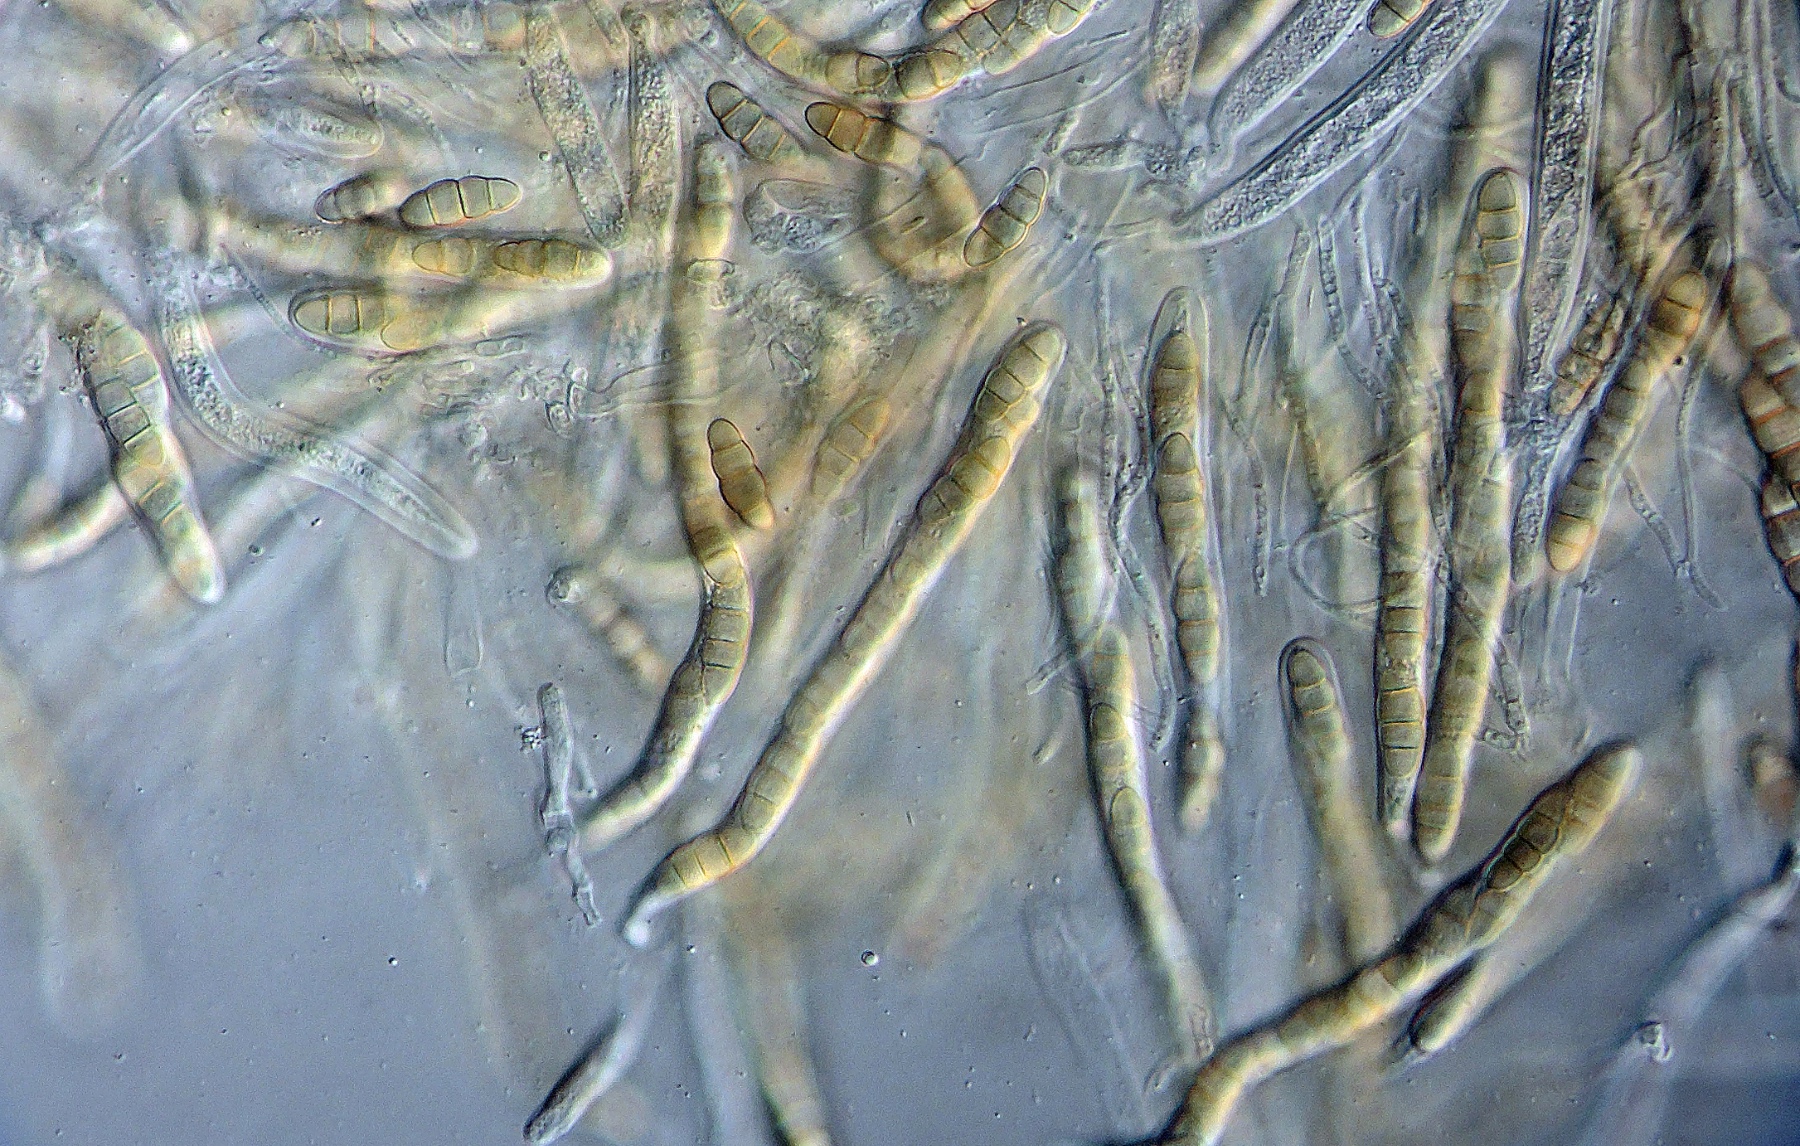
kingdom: Plantae
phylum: Bryophyta
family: Dothideomycetes
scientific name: Dothideomycetes
